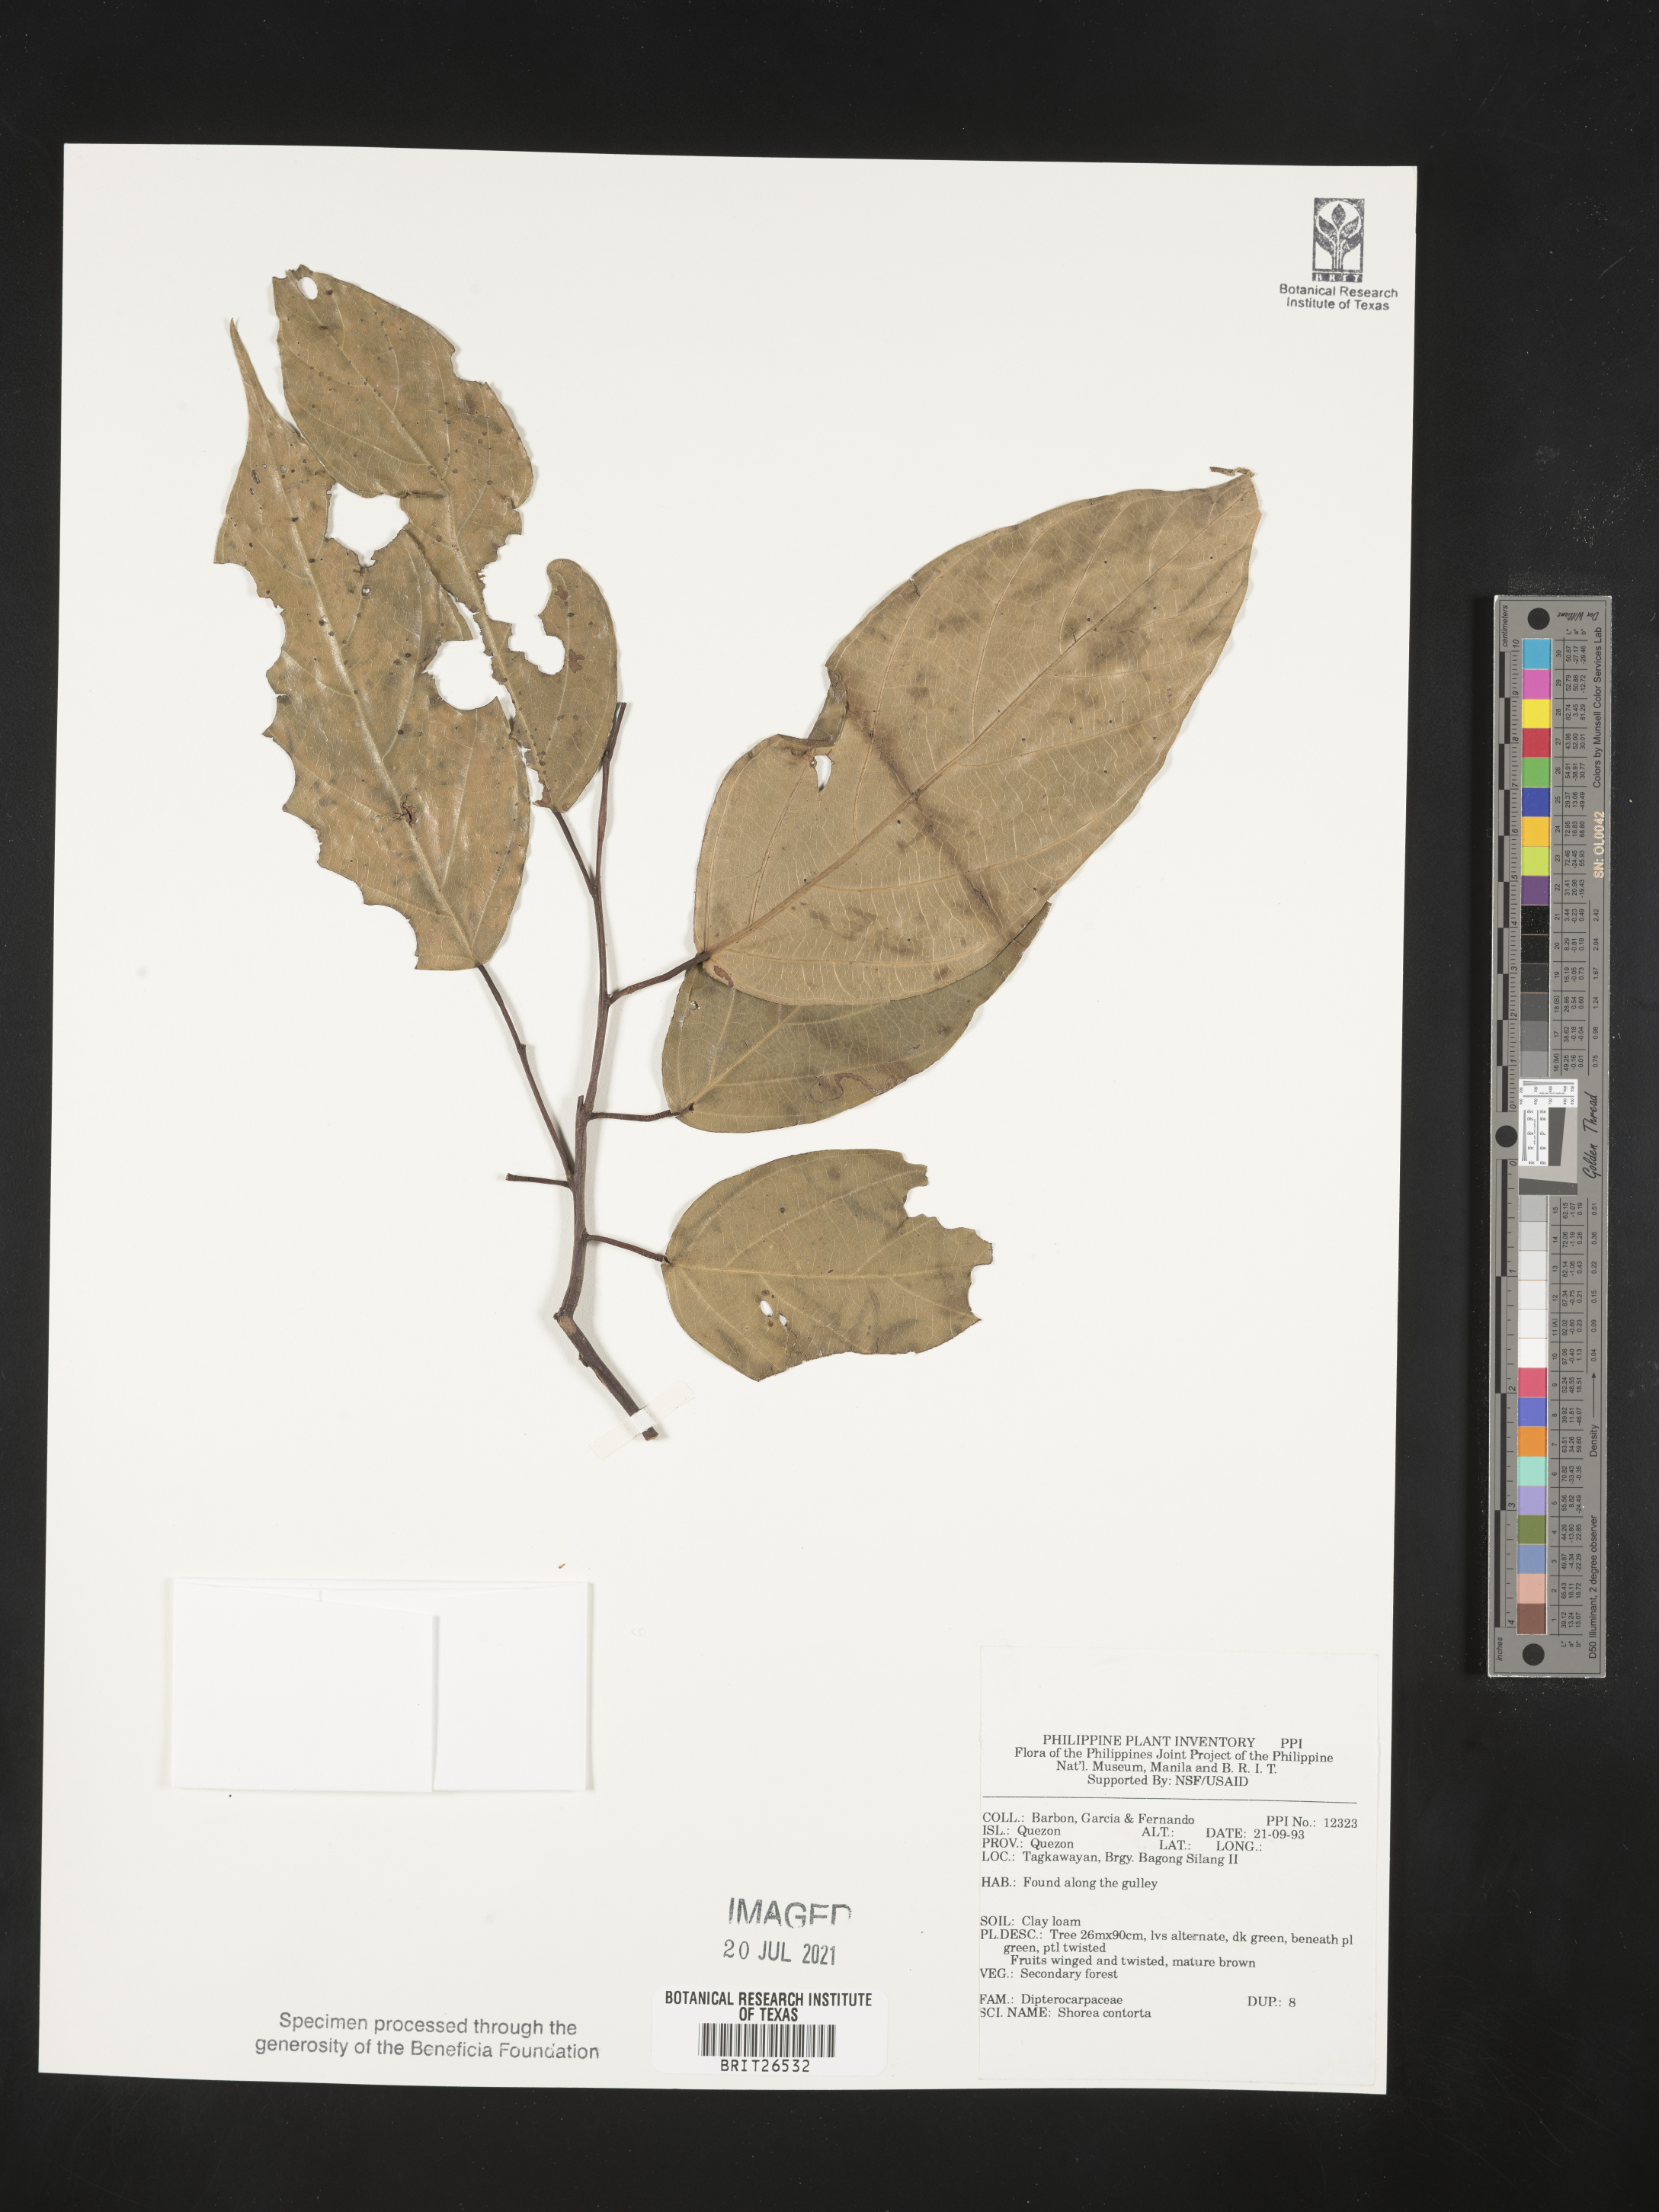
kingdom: Plantae
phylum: Tracheophyta
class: Magnoliopsida
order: Malvales
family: Dipterocarpaceae
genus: Pentacme
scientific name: Pentacme contorta
